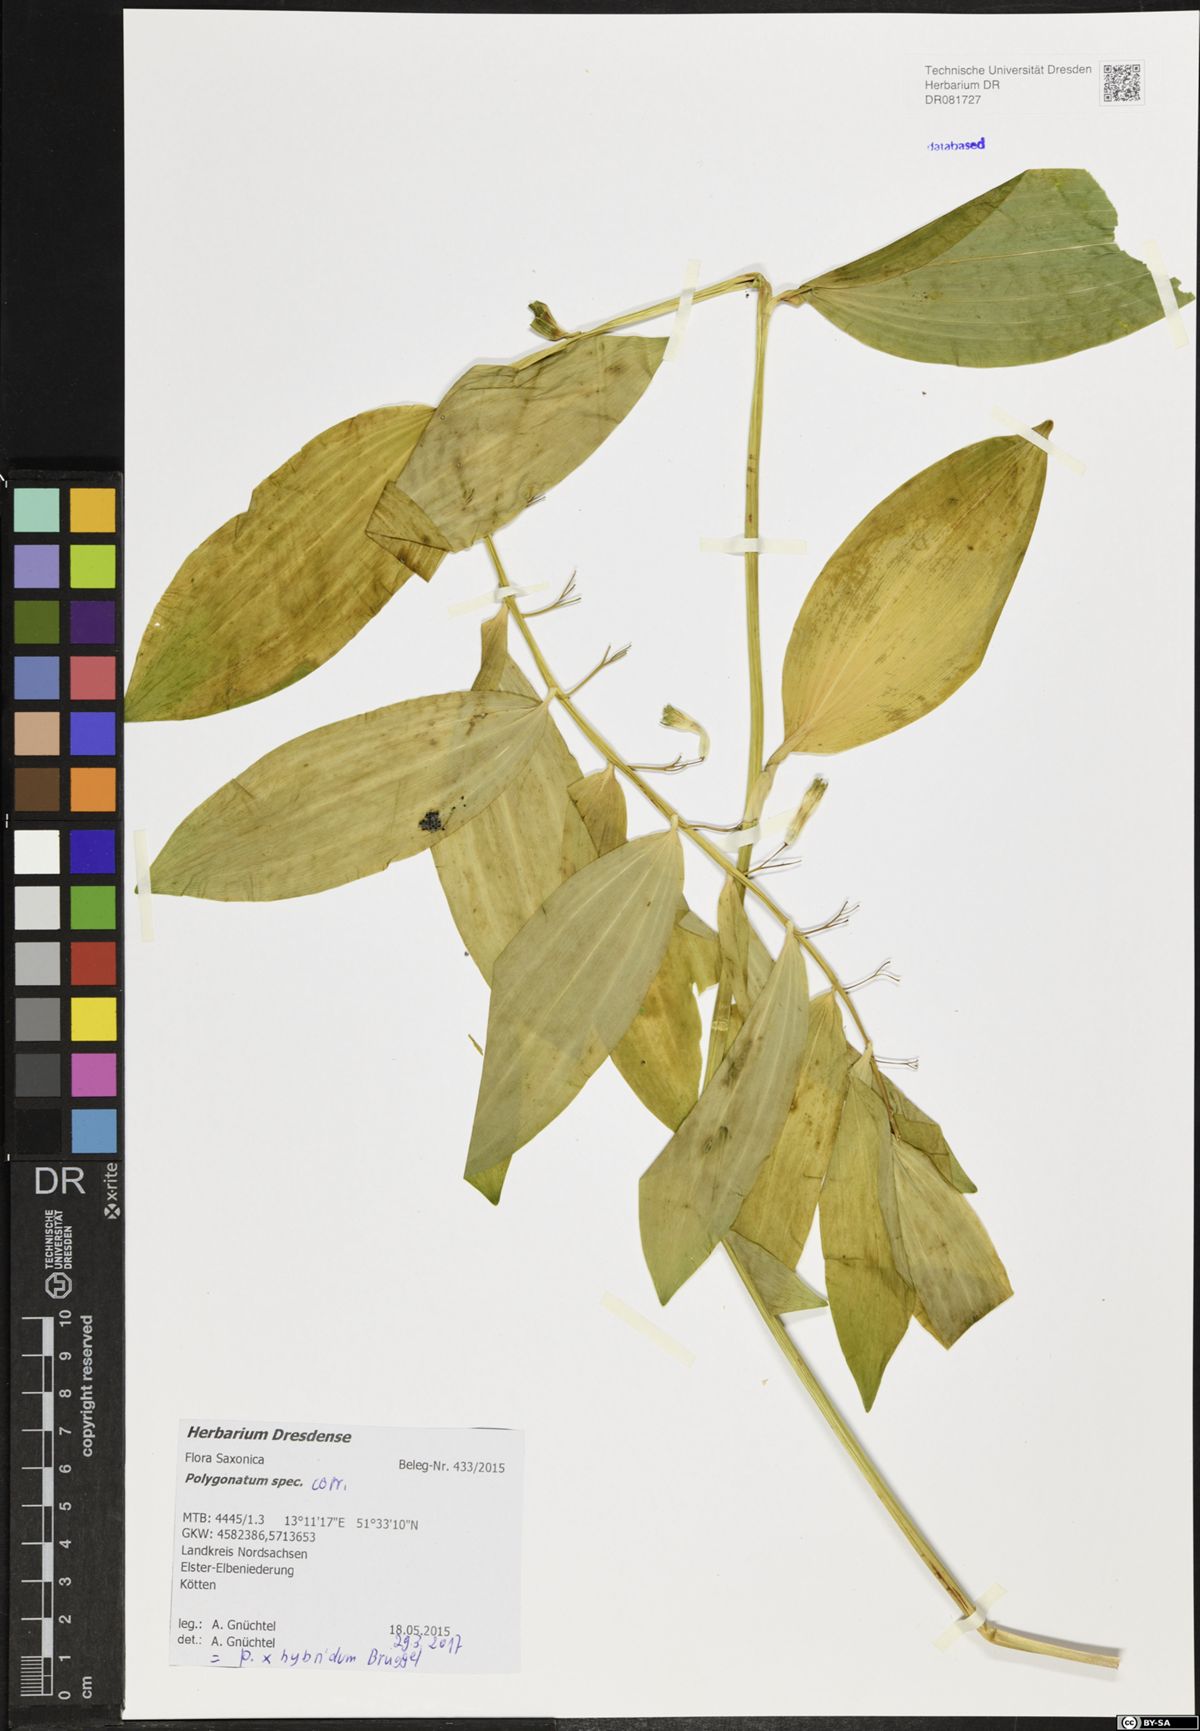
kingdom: Plantae
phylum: Tracheophyta
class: Liliopsida
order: Asparagales
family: Asparagaceae
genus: Polygonatum
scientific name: Polygonatum hybridum
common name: Garden solomon's-seal
